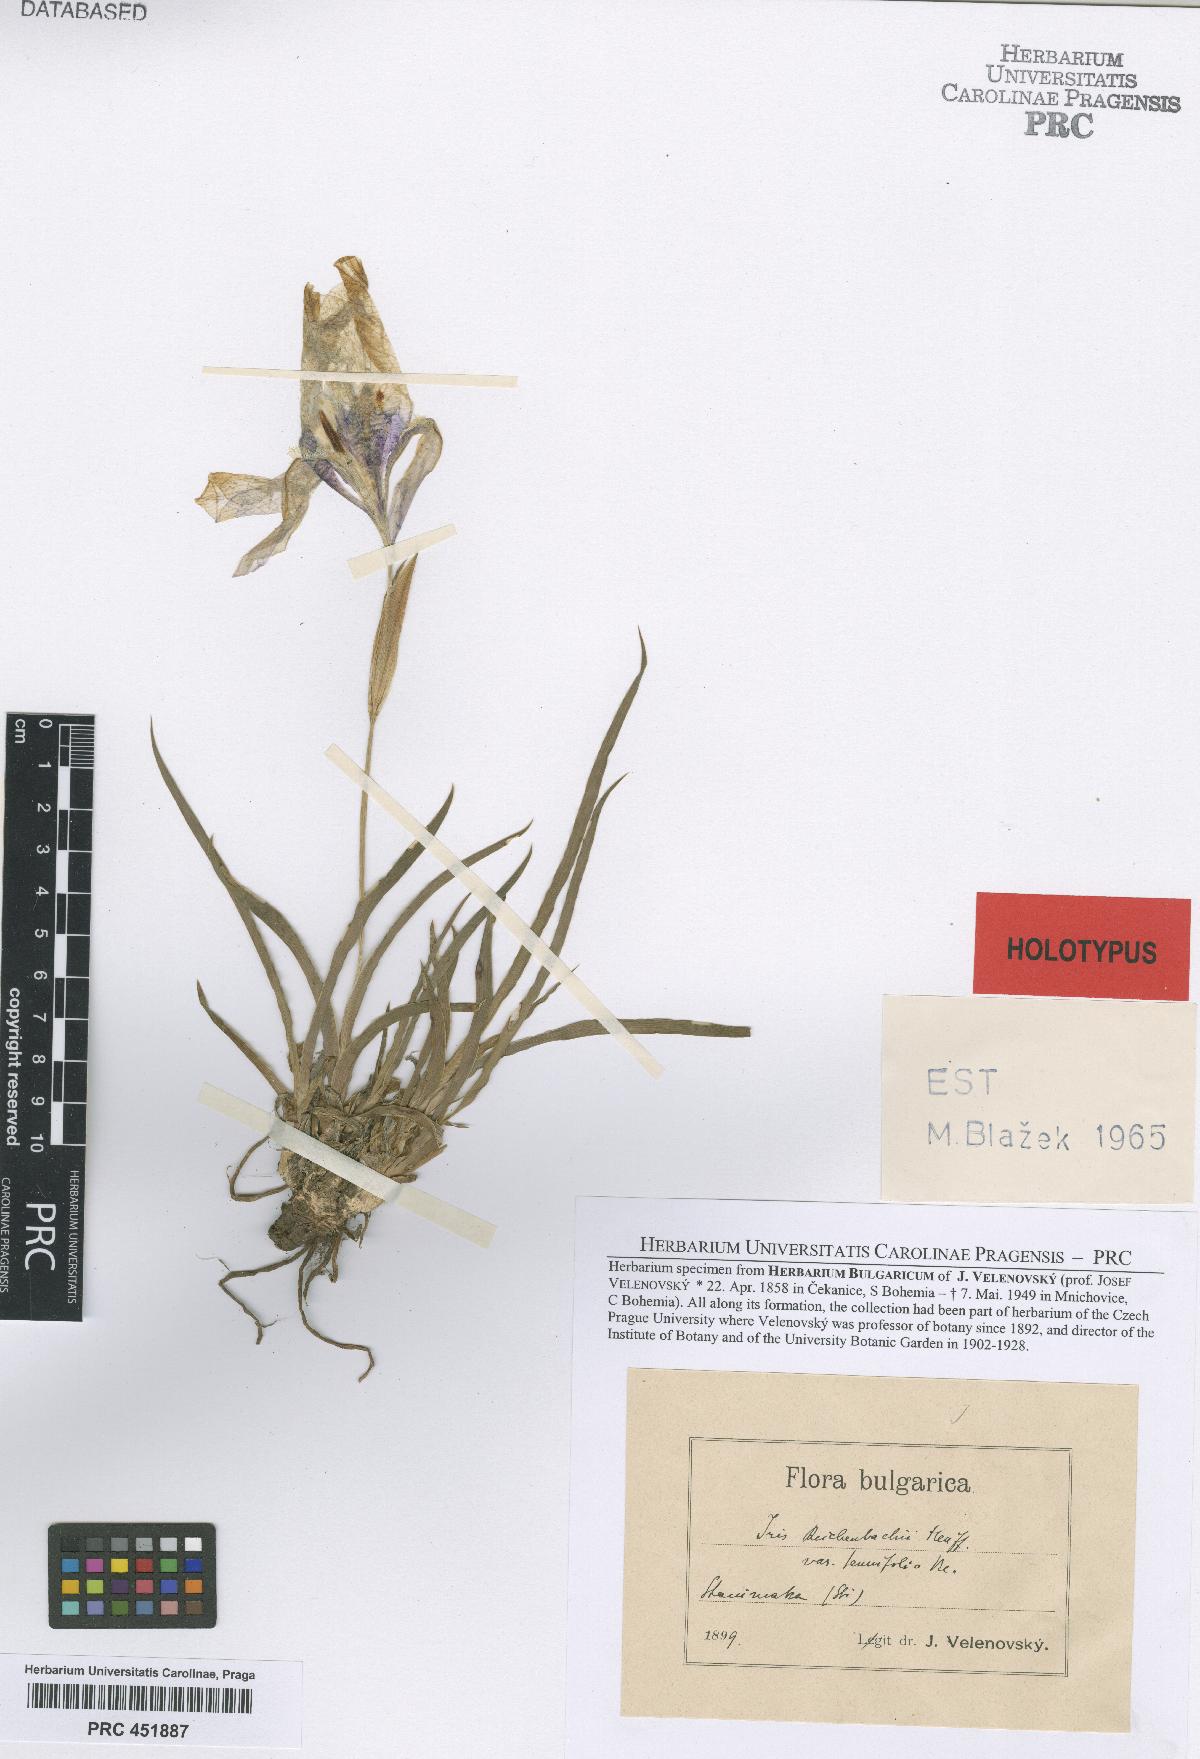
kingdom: Plantae
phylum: Tracheophyta
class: Liliopsida
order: Asparagales
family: Iridaceae
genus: Iris
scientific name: Iris reichenbachii
